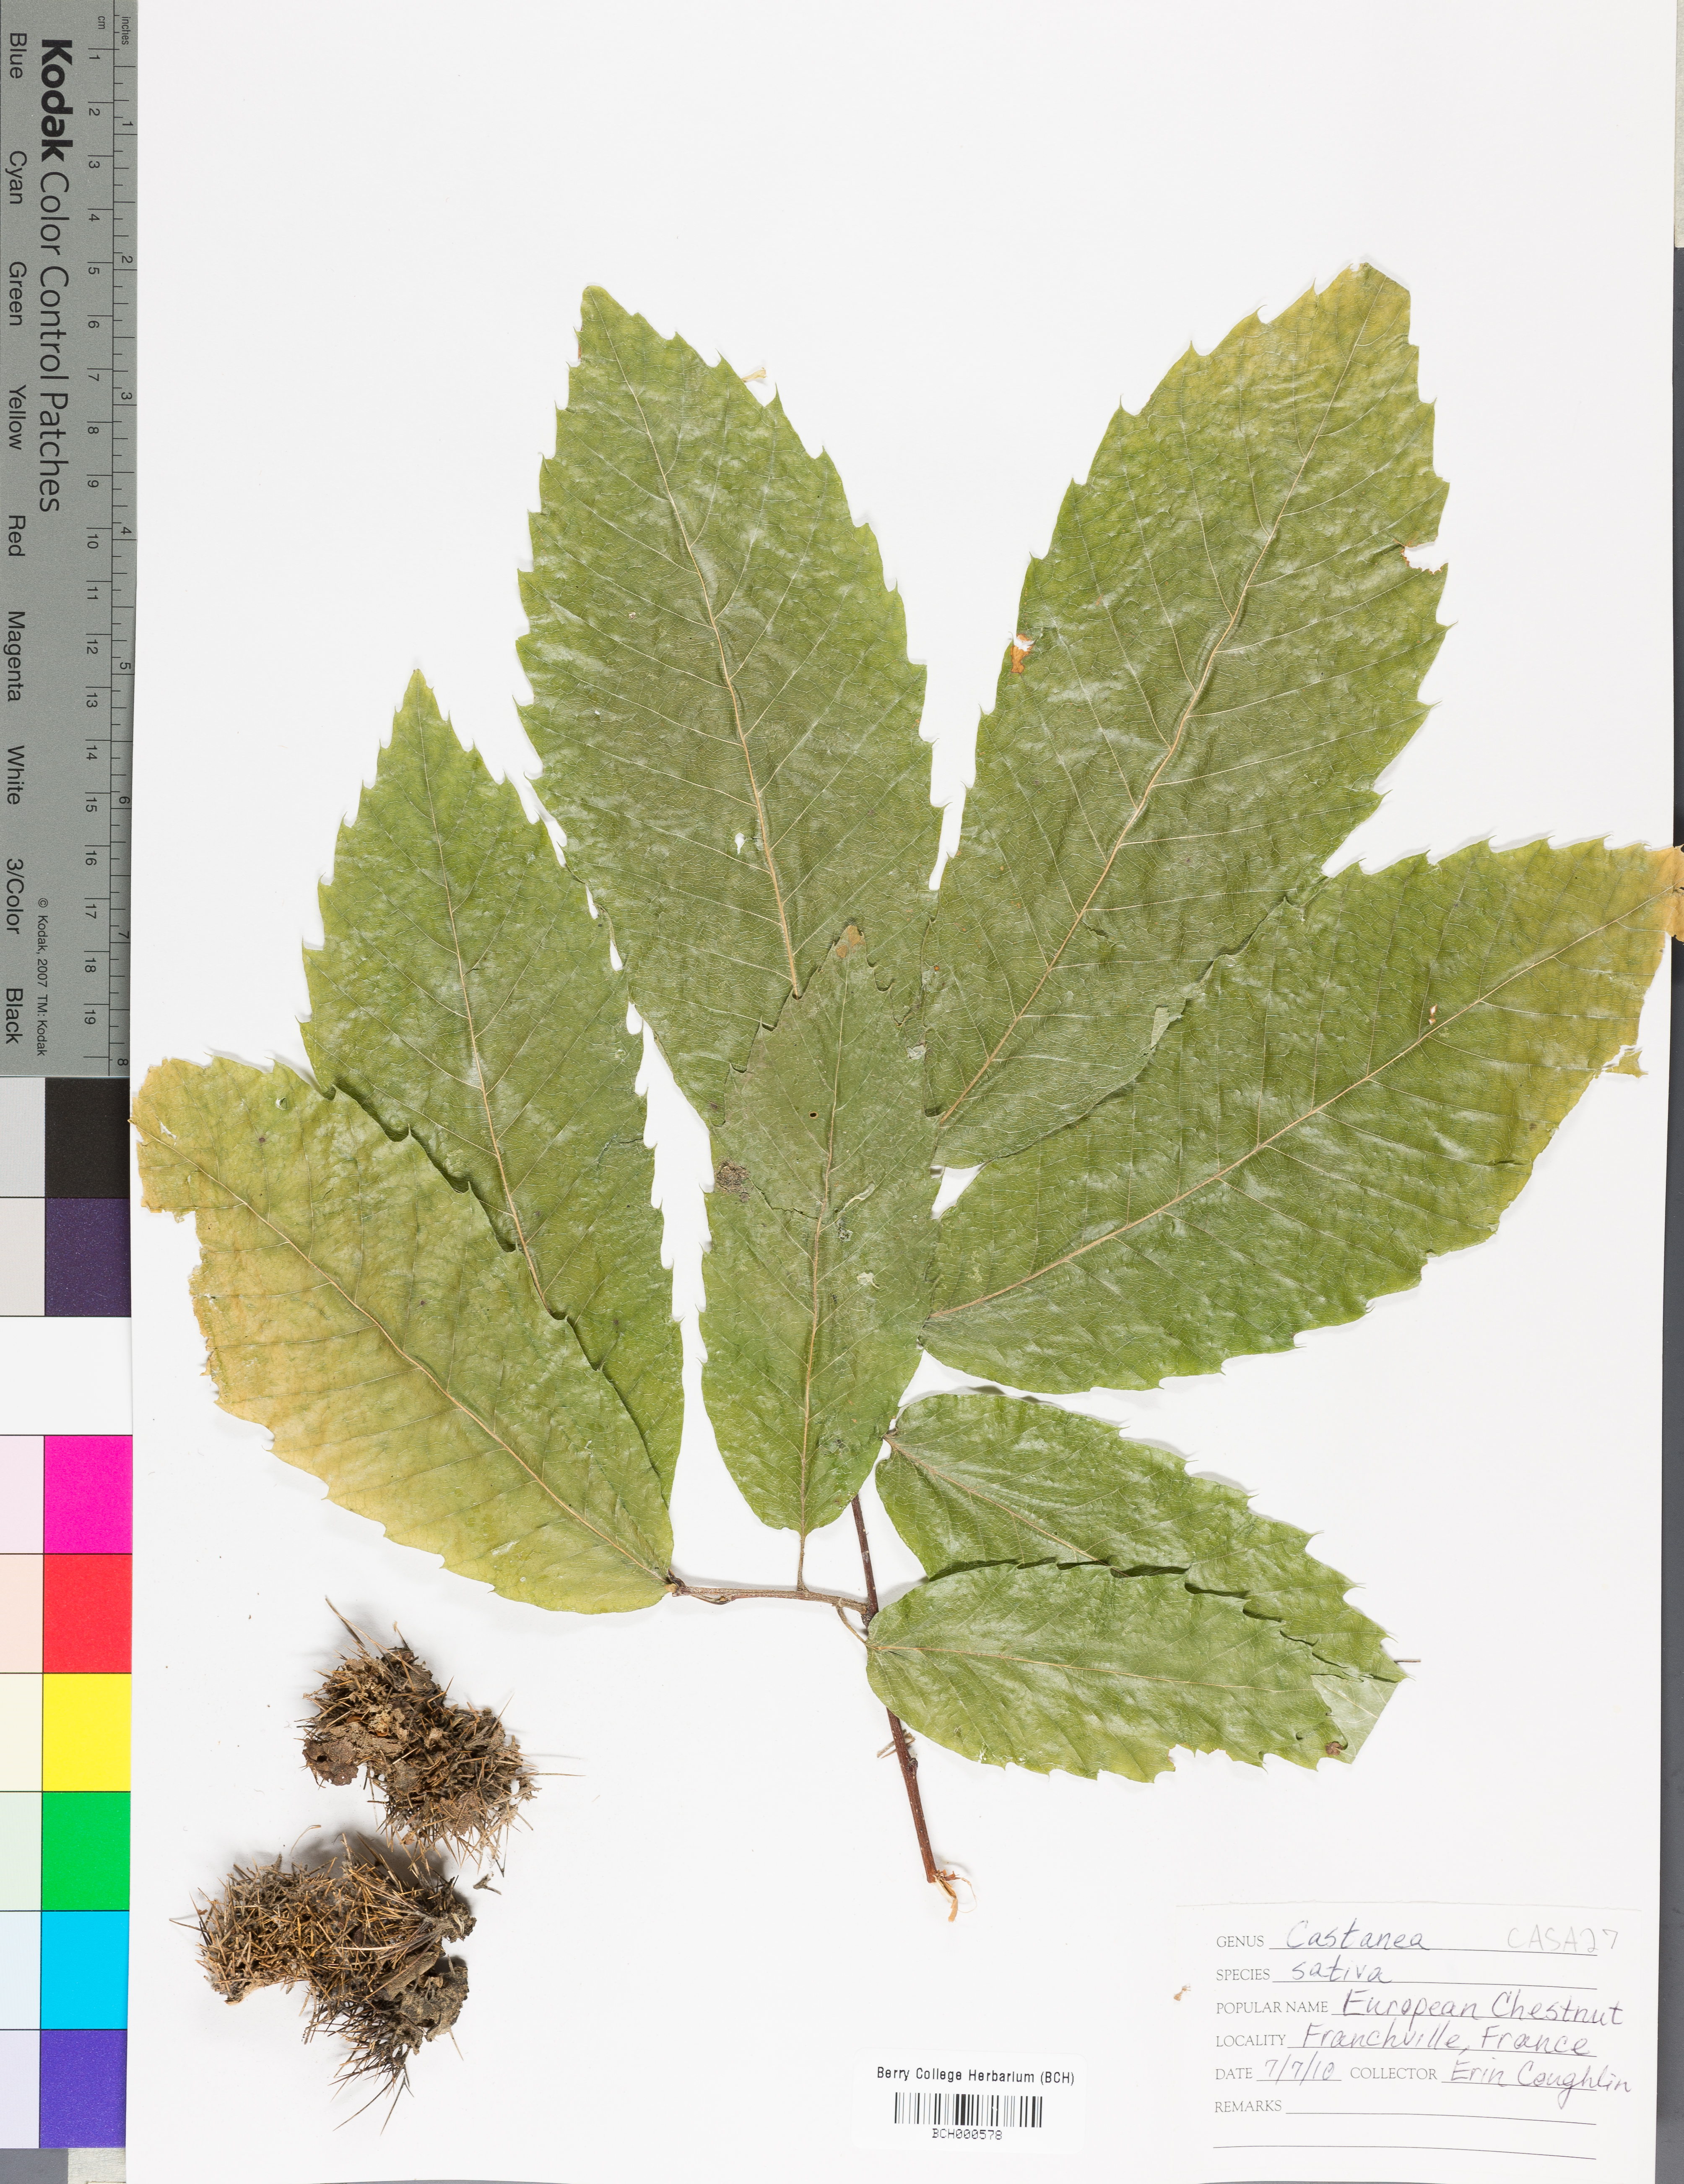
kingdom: Plantae
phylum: Tracheophyta
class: Magnoliopsida
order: Fagales
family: Fagaceae
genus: Castanea
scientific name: Castanea sativa
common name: Sweet chestnut
